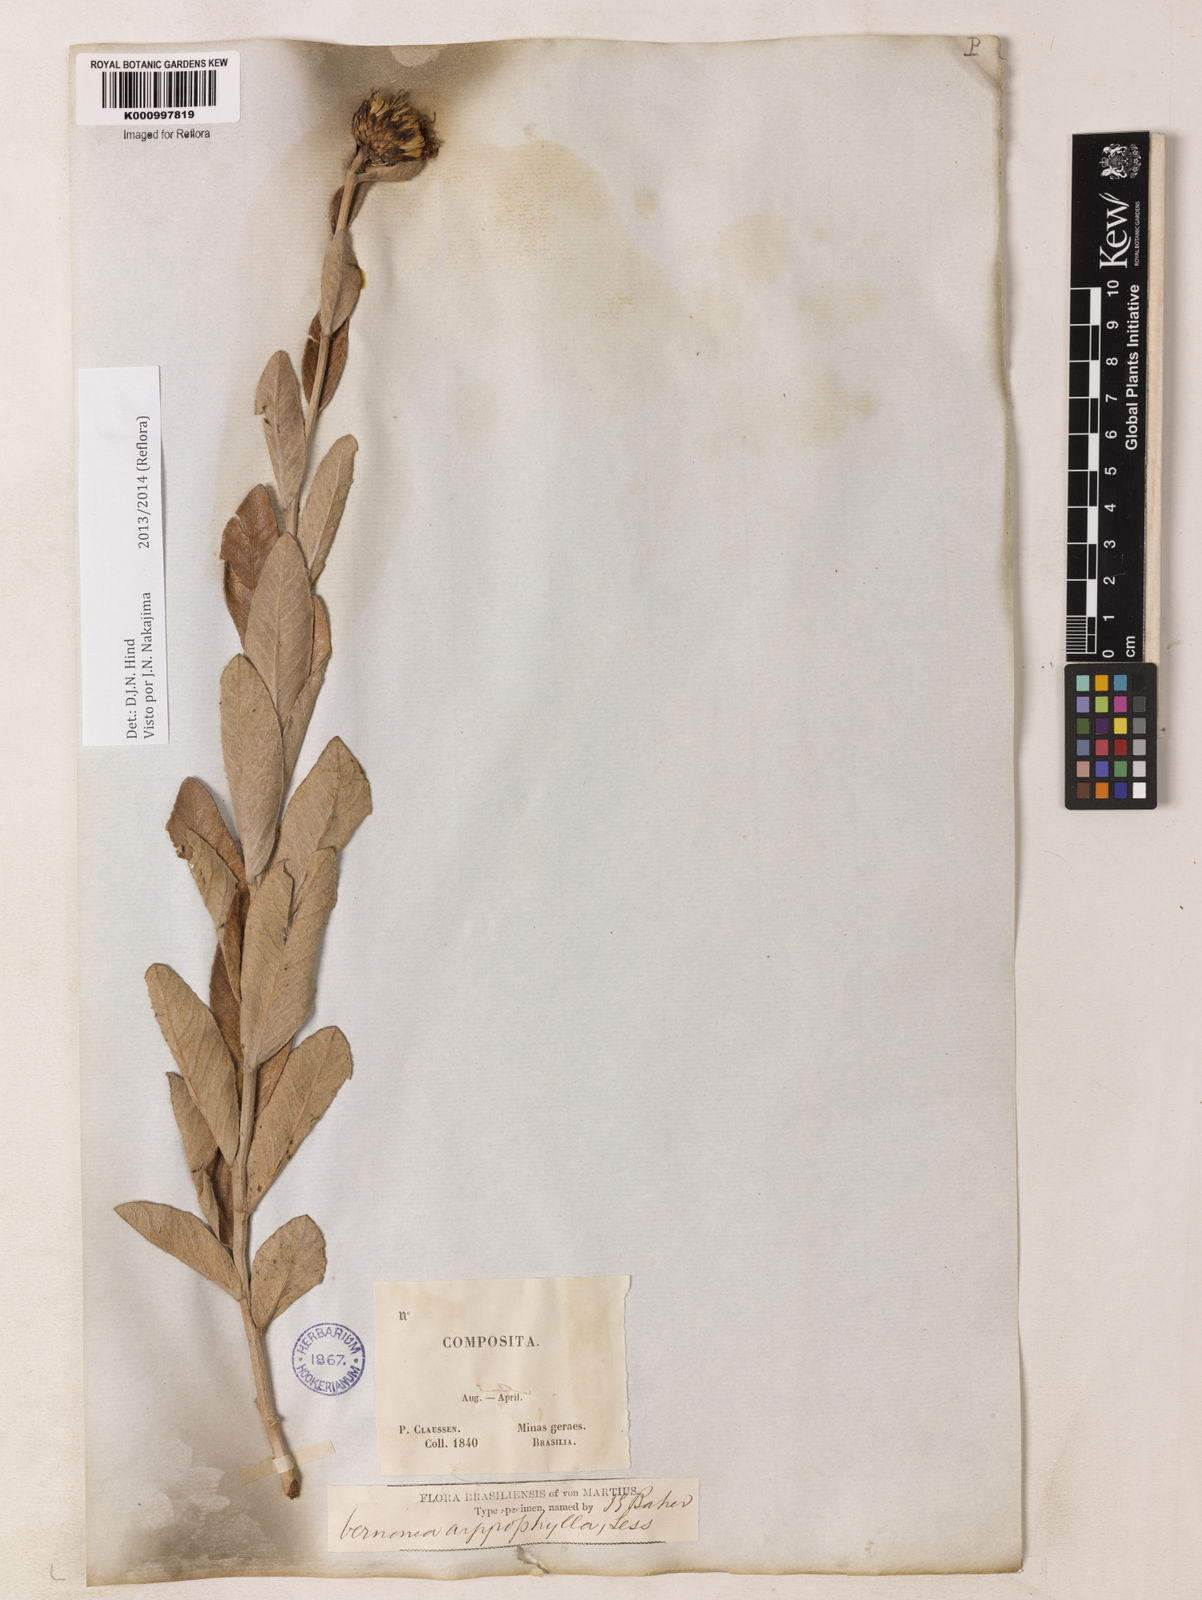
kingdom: Plantae
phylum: Tracheophyta
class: Magnoliopsida
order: Asterales
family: Asteraceae
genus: Lessingianthus
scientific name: Lessingianthus argyrophyllus
